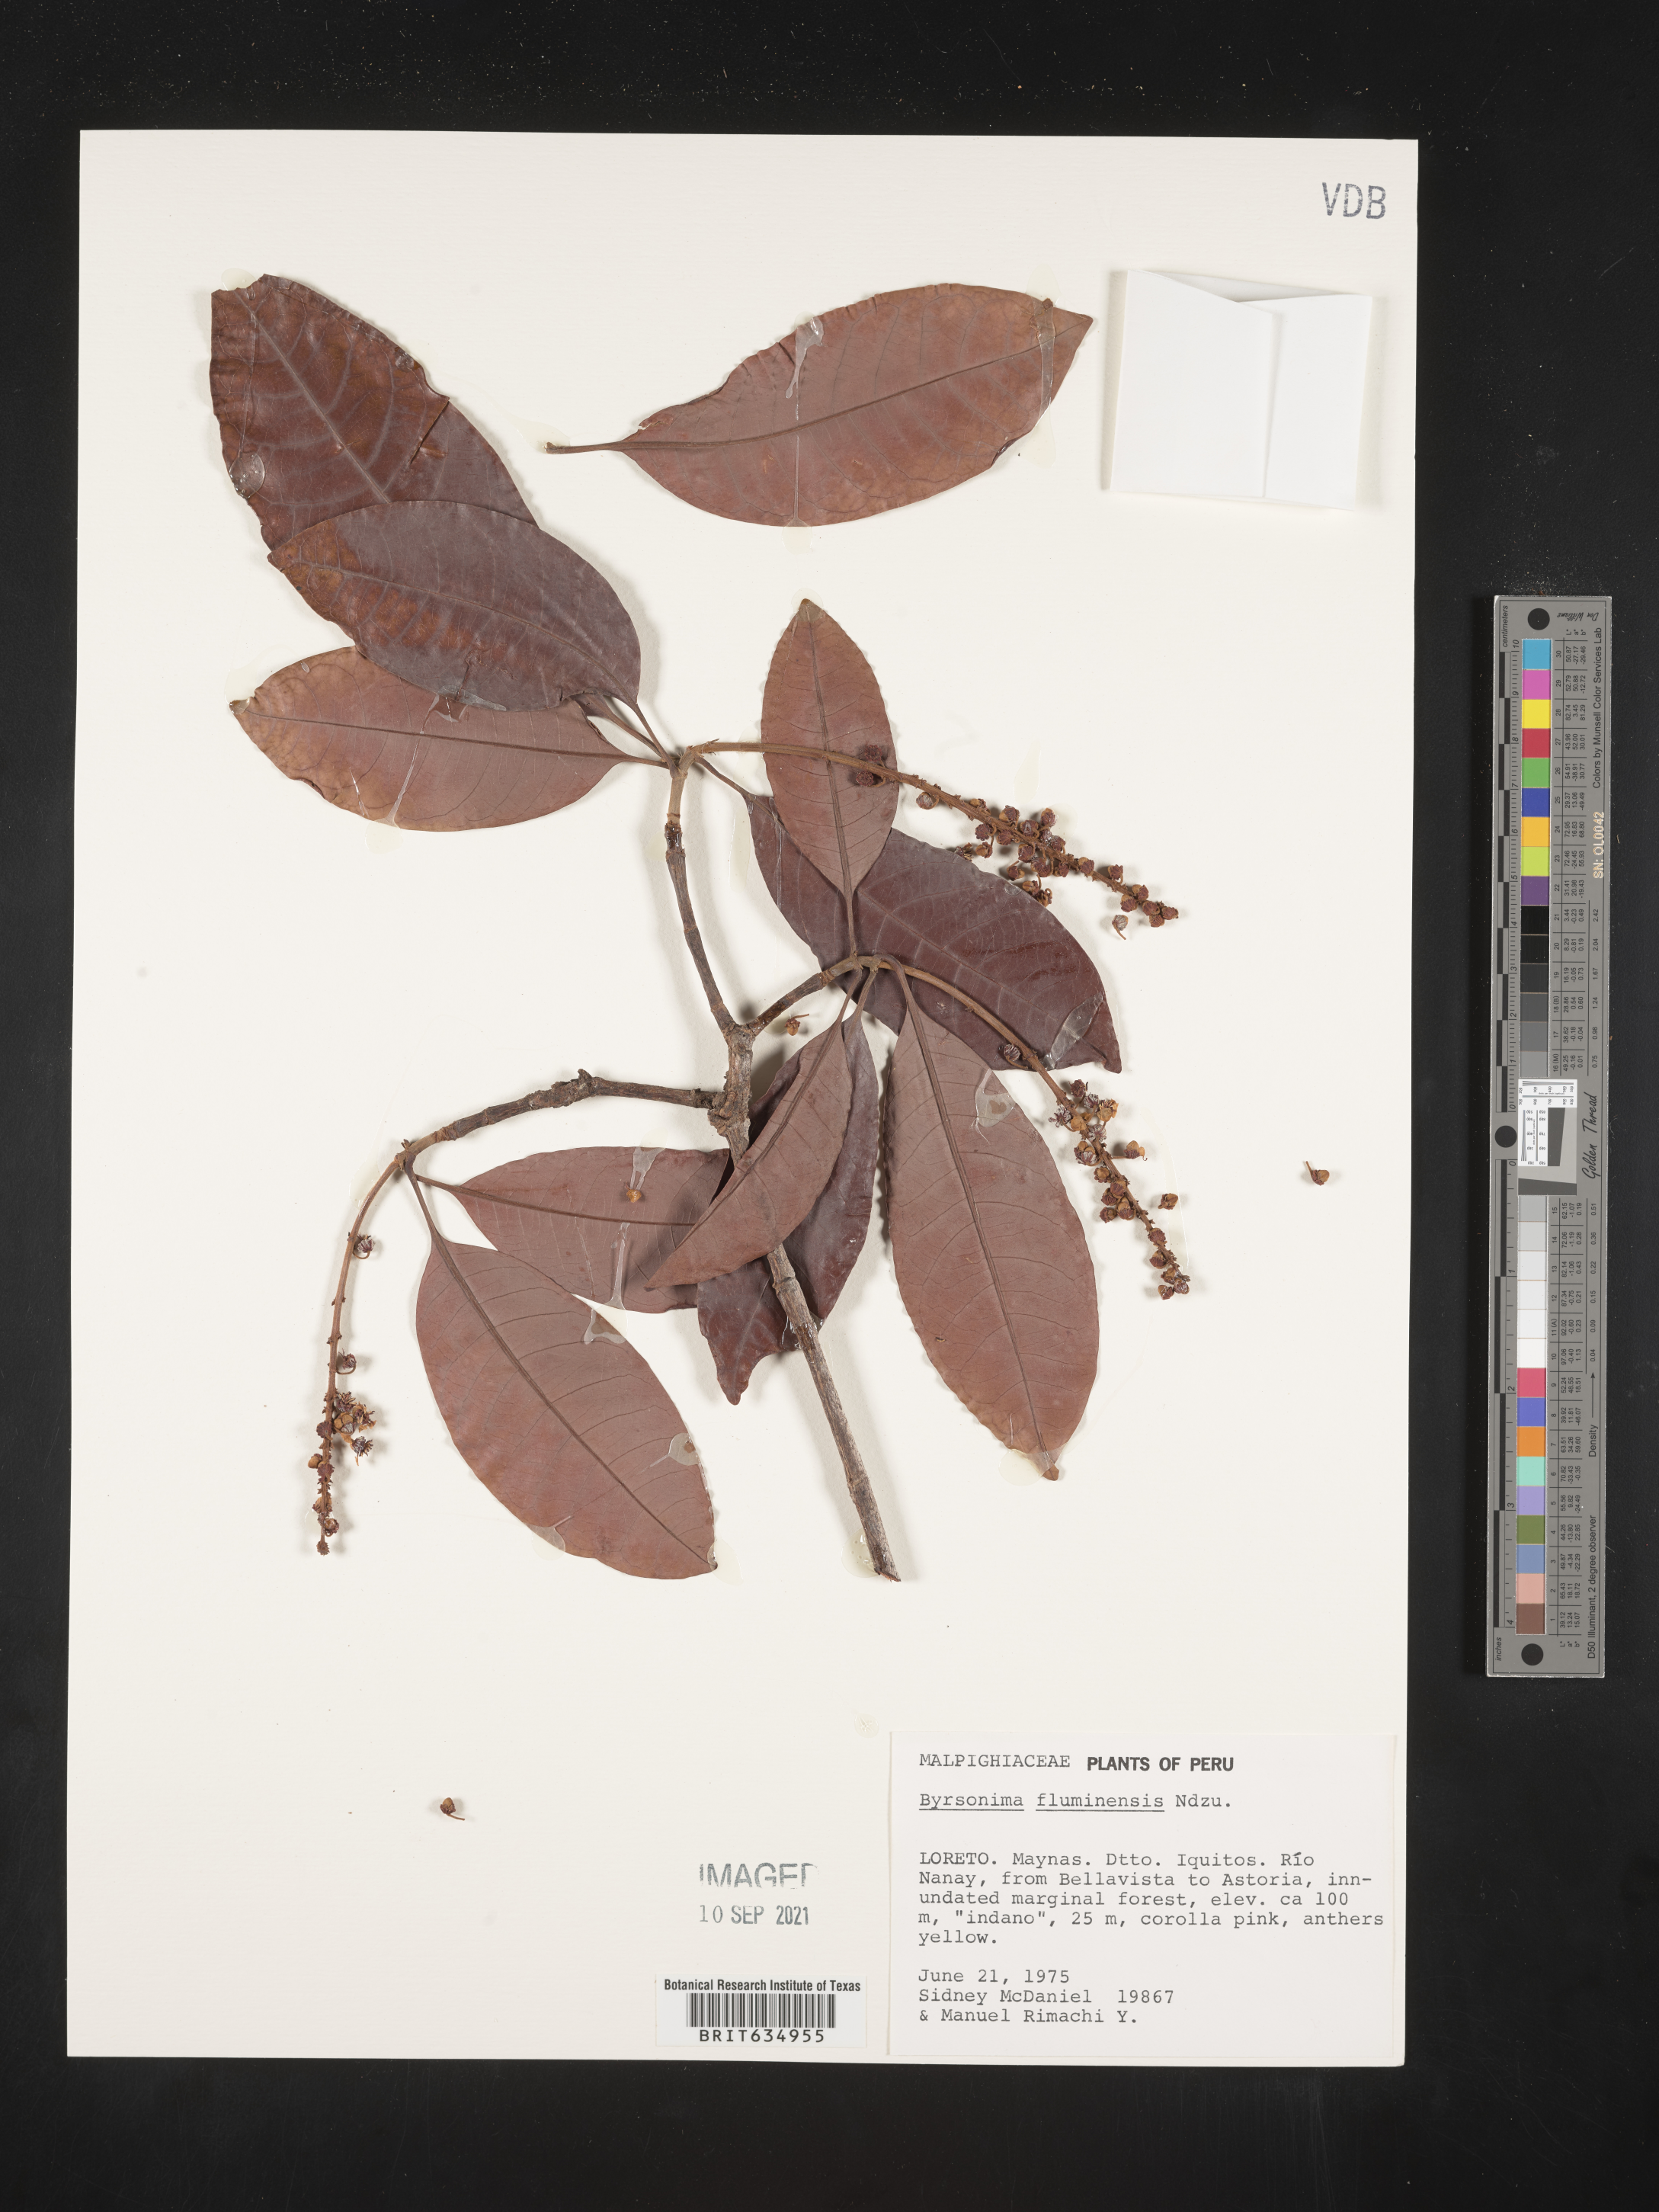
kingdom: Plantae
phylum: Tracheophyta
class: Magnoliopsida
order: Malpighiales
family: Malpighiaceae
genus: Byrsonima
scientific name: Byrsonima
